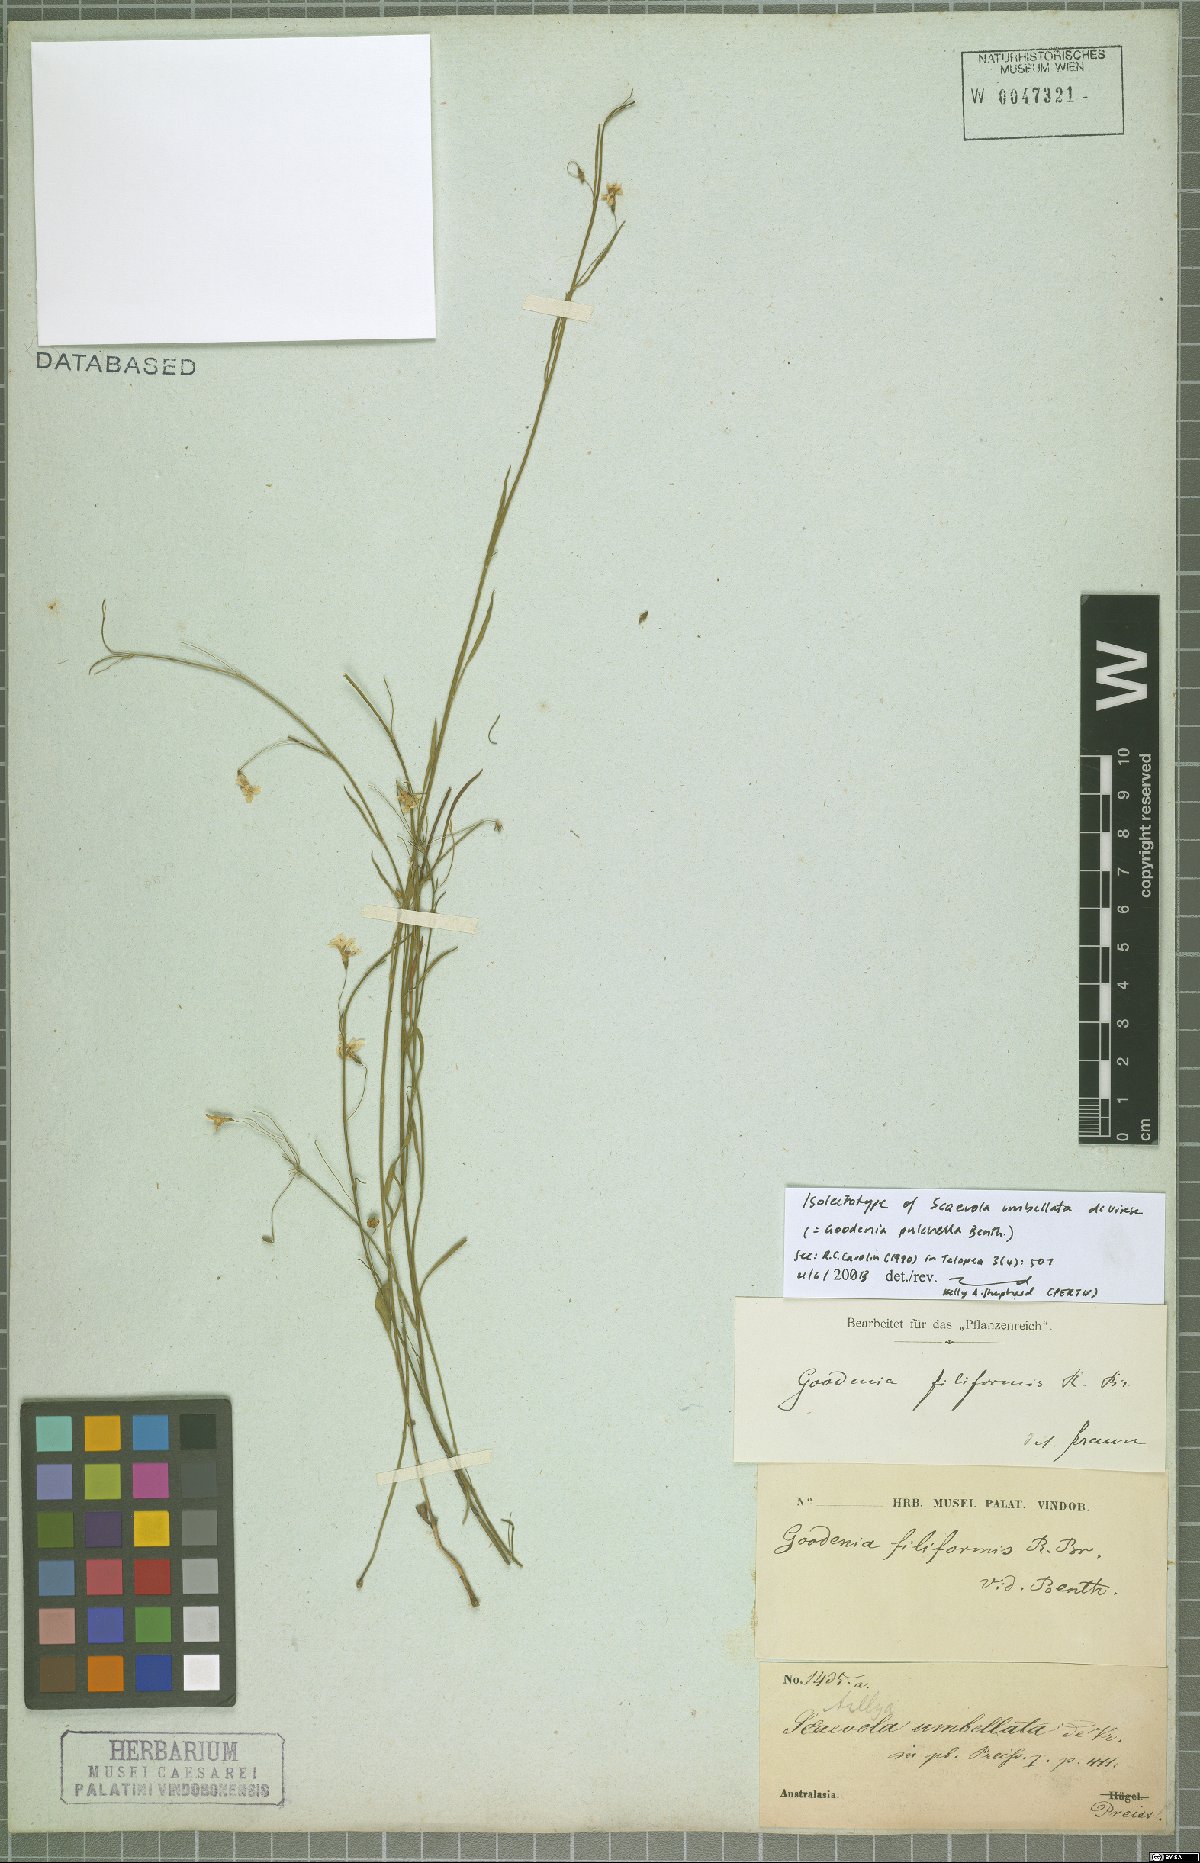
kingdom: Plantae
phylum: Tracheophyta
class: Magnoliopsida
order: Asterales
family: Goodeniaceae
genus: Goodenia
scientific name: Goodenia pulchella
